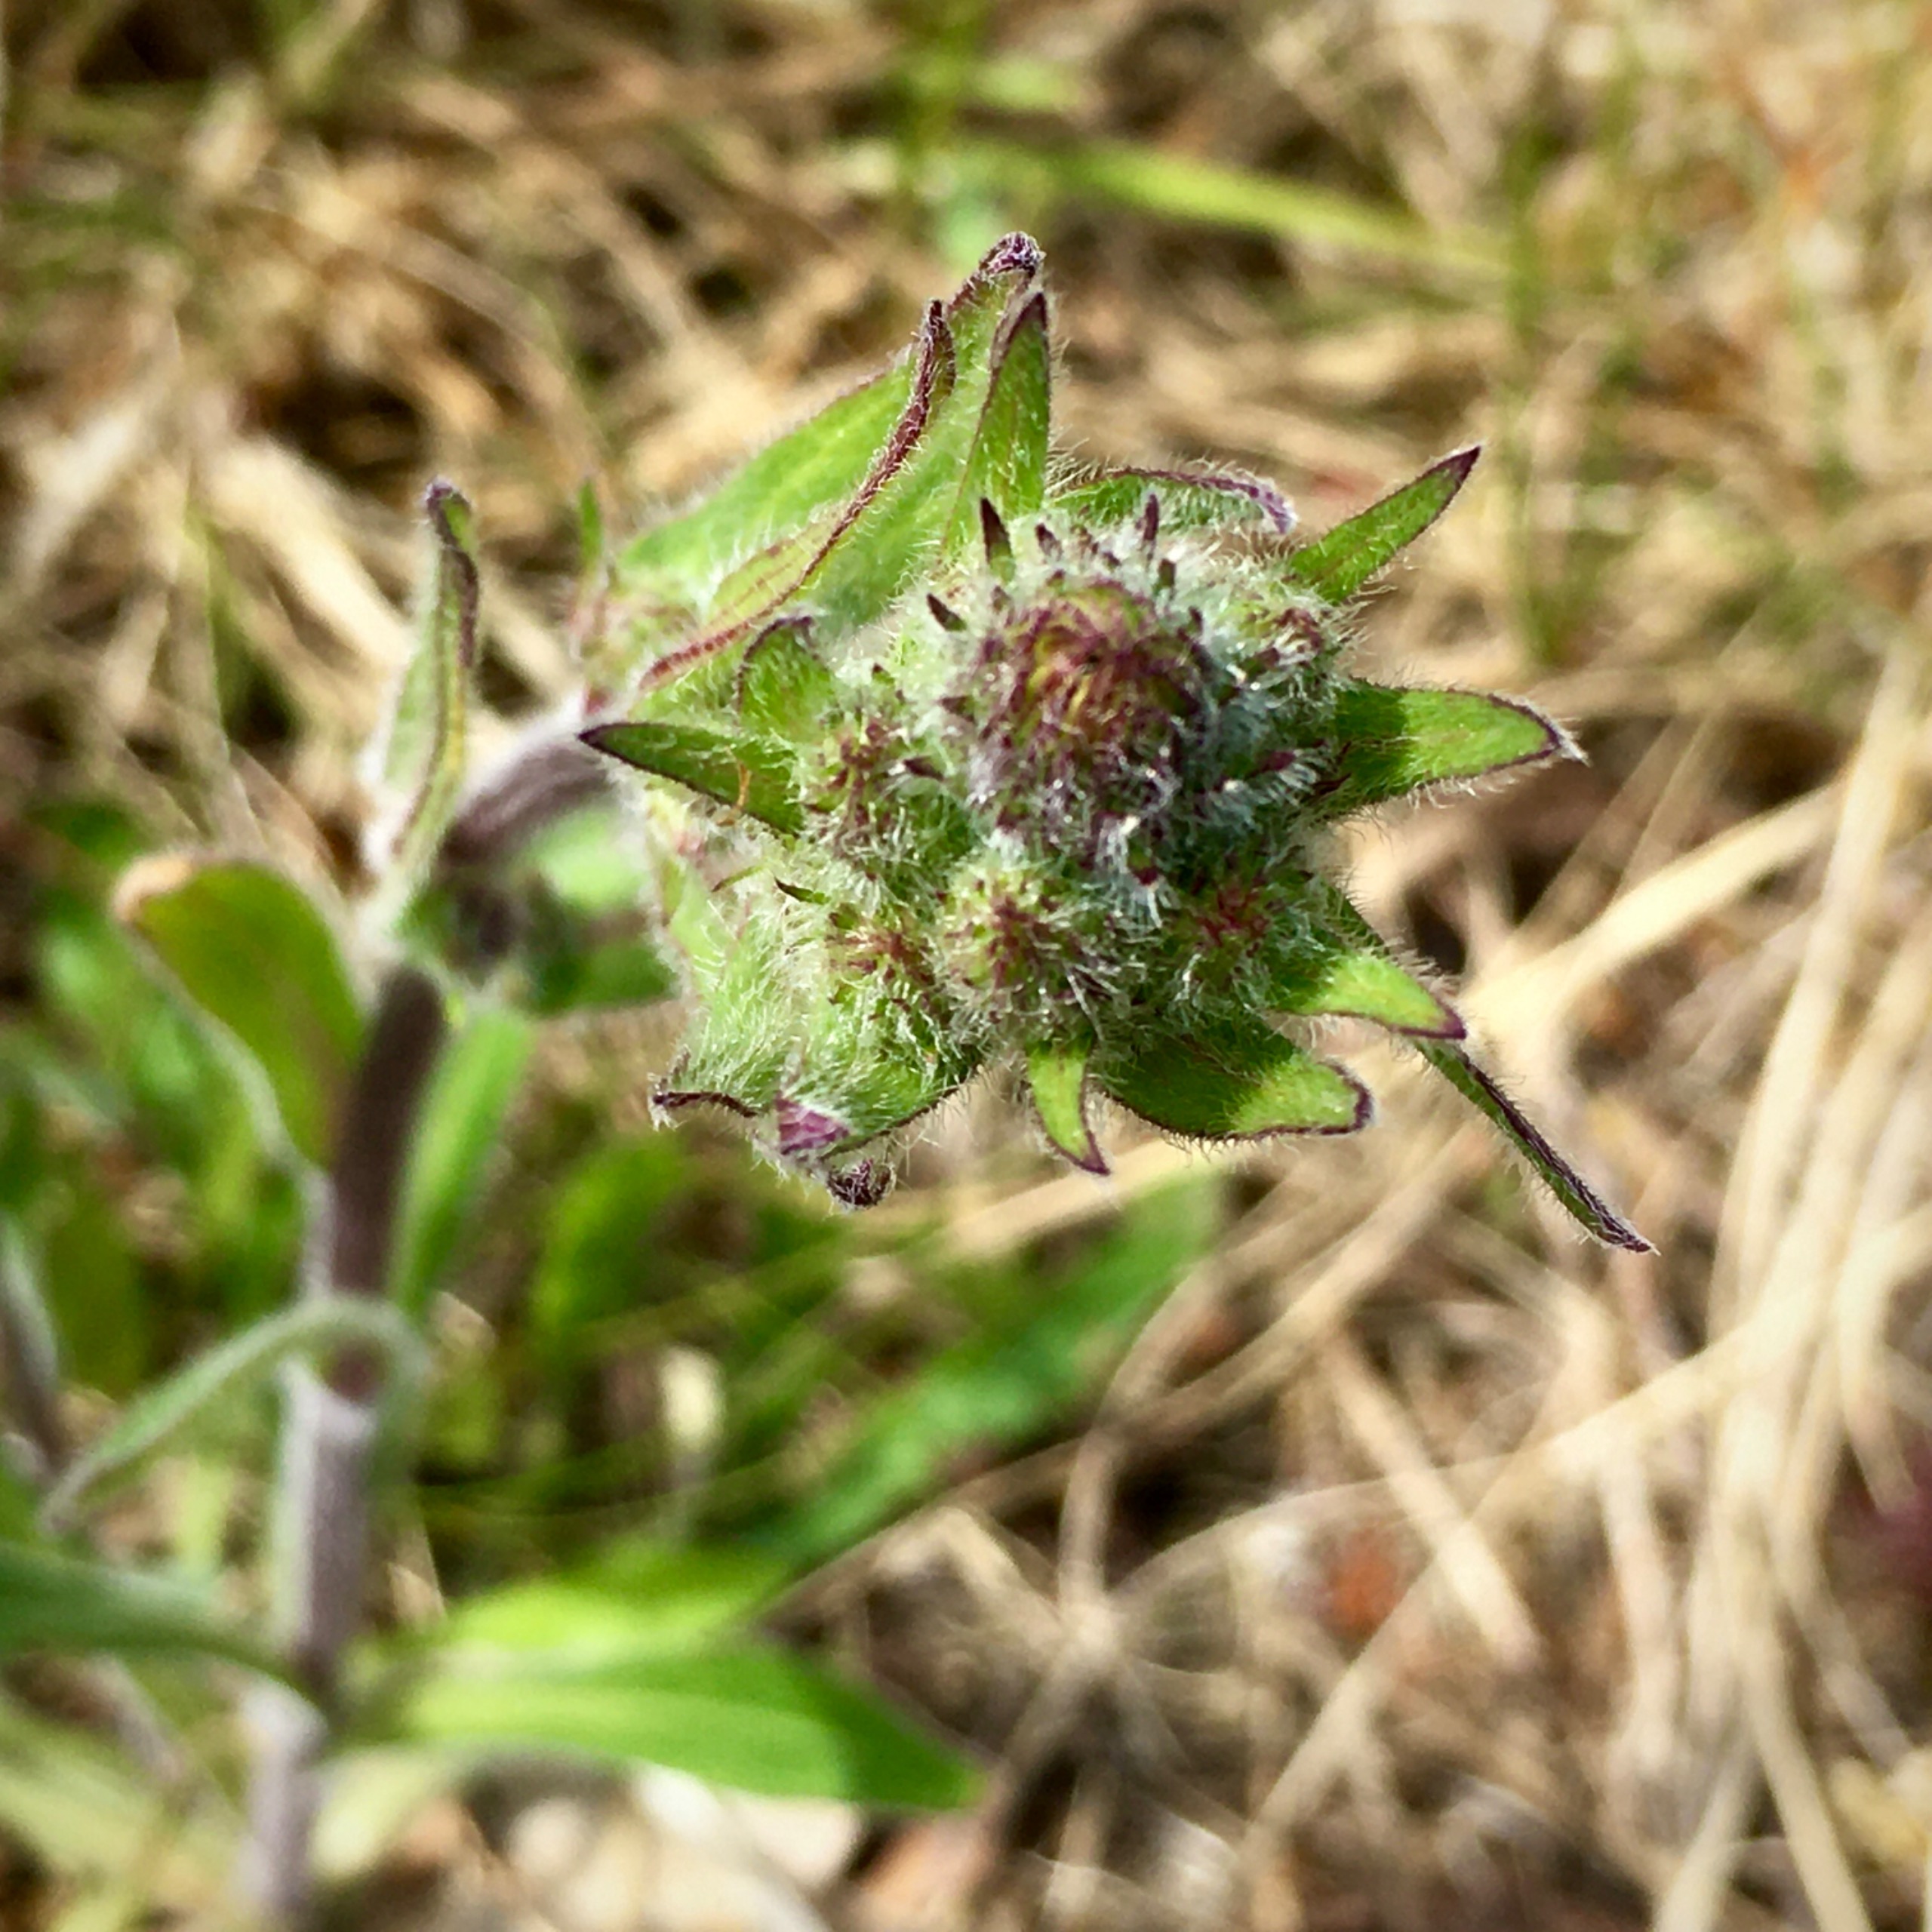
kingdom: Plantae
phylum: Tracheophyta
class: Magnoliopsida
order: Asterales
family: Asteraceae
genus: Erigeron
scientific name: Erigeron acris
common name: Bitter bakkestjerne
